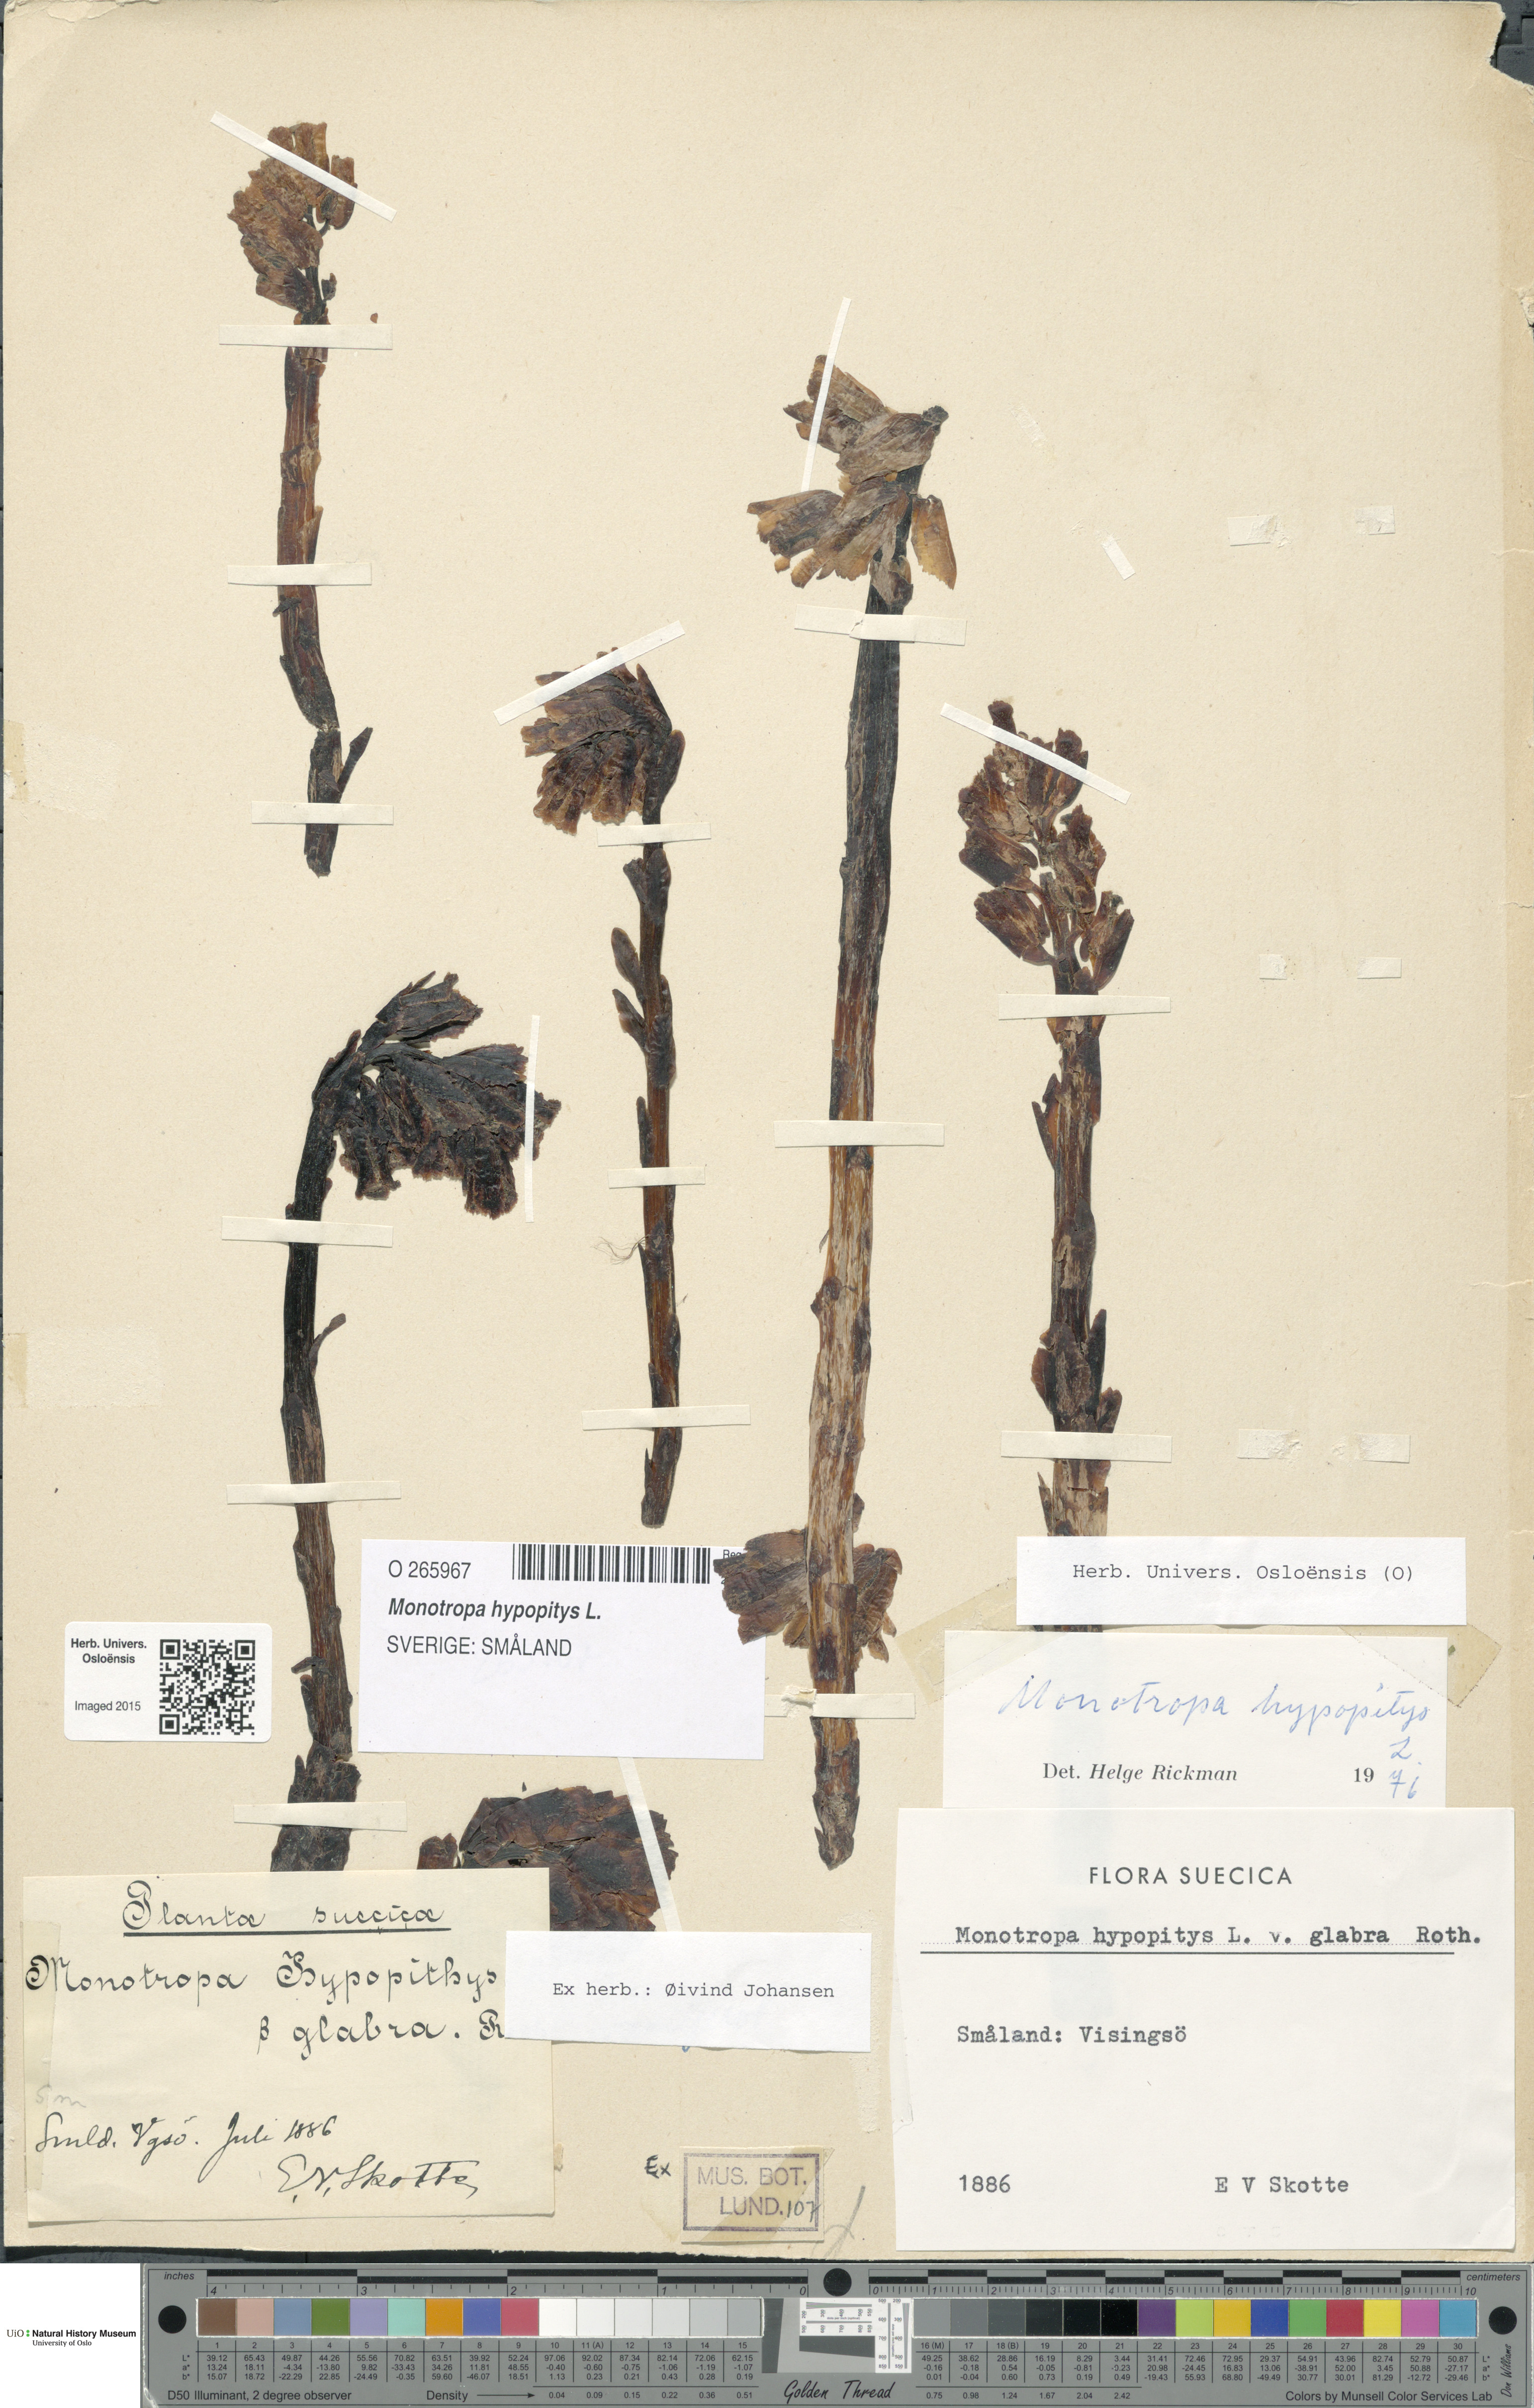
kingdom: Plantae
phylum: Tracheophyta
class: Magnoliopsida
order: Ericales
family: Ericaceae
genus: Hypopitys
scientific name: Hypopitys monotropa
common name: Yellow bird's-nest
